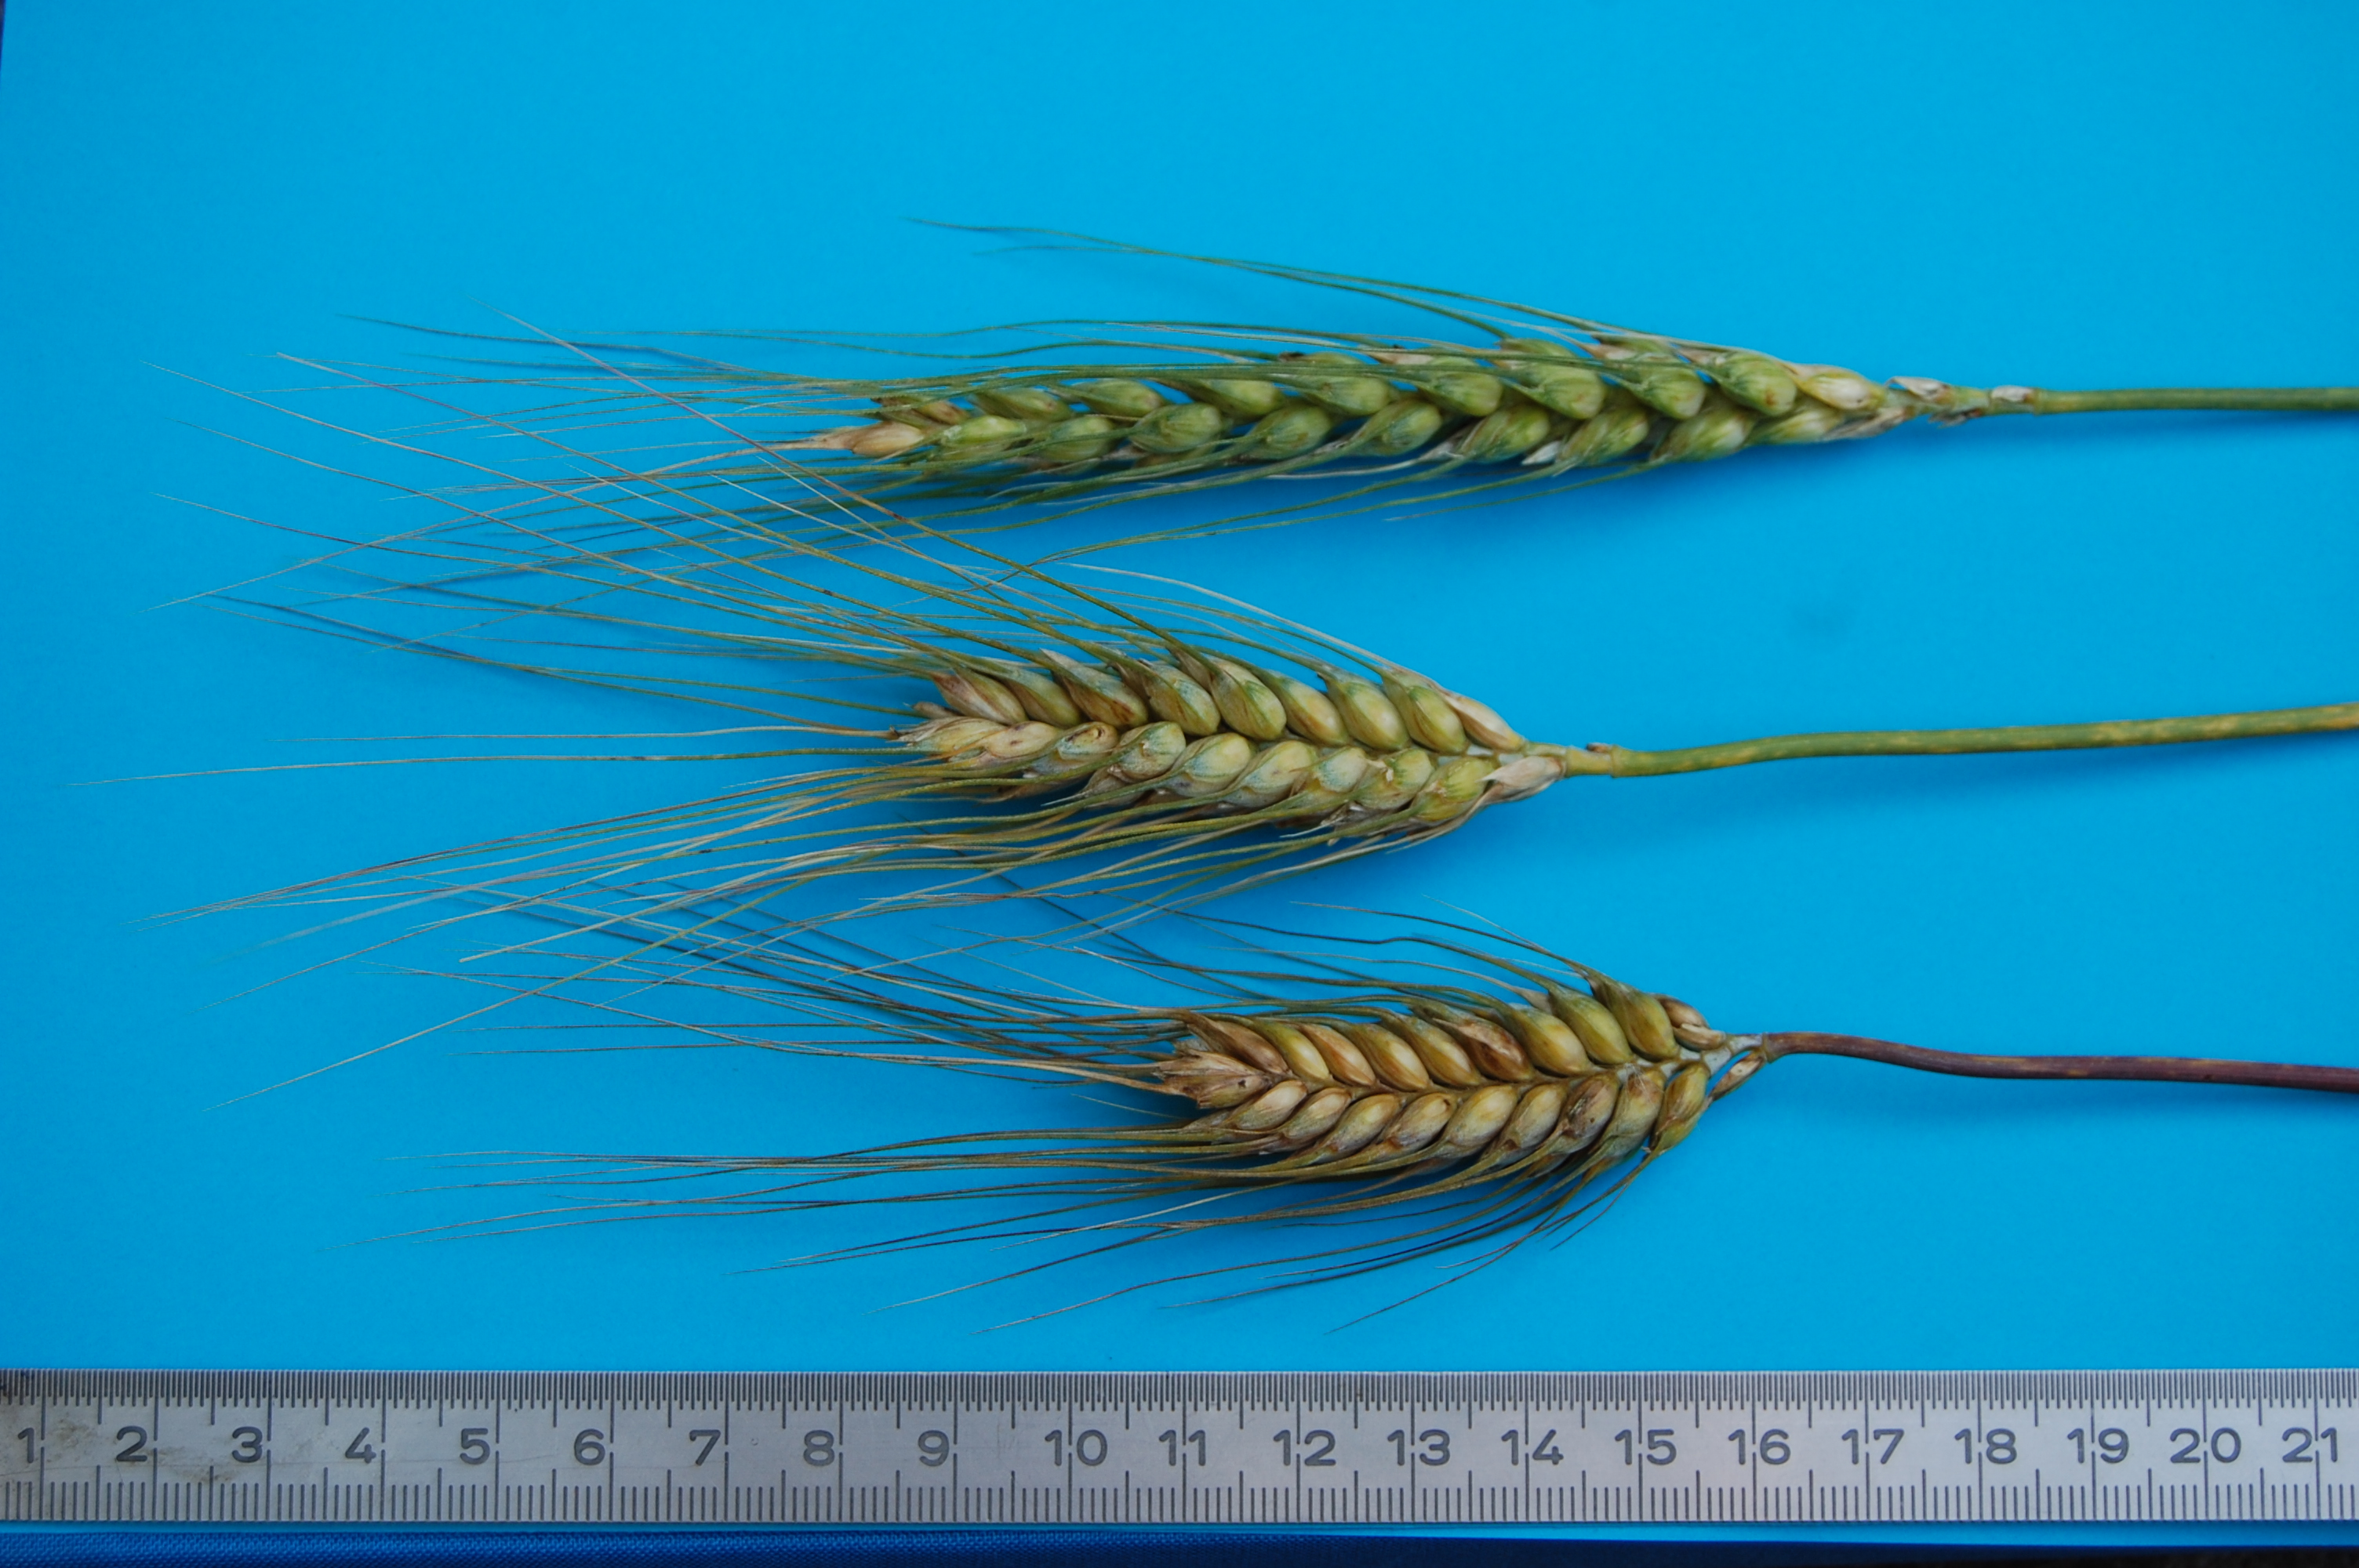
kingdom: Plantae
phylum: Tracheophyta
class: Liliopsida
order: Poales
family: Poaceae
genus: Triticum
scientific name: Triticum aestivum
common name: Common wheat
